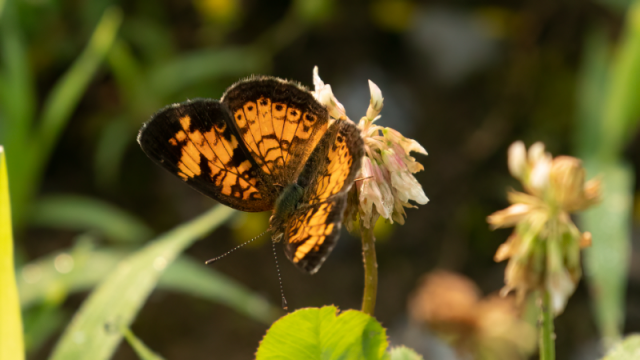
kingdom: Animalia
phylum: Arthropoda
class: Insecta
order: Lepidoptera
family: Nymphalidae
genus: Phyciodes
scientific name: Phyciodes tharos
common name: Northern Crescent
